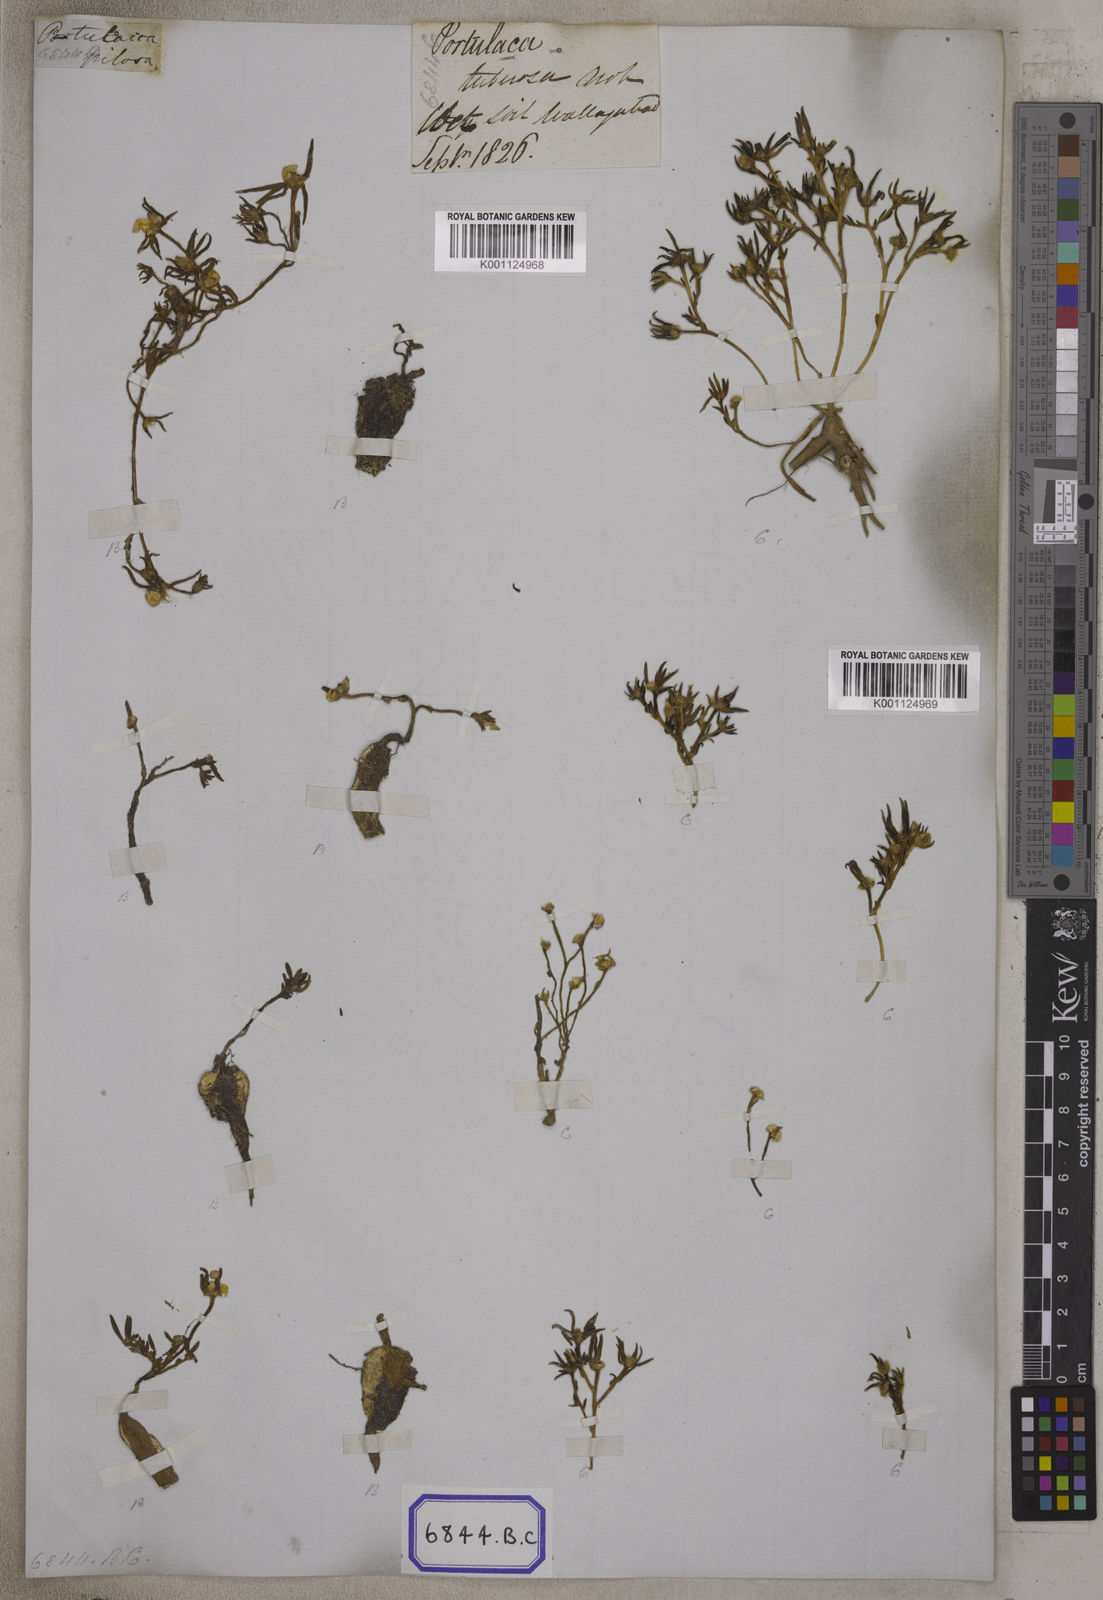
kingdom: Plantae
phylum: Tracheophyta
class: Magnoliopsida
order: Caryophyllales
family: Portulacaceae
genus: Portulaca
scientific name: Portulaca tuberosa
